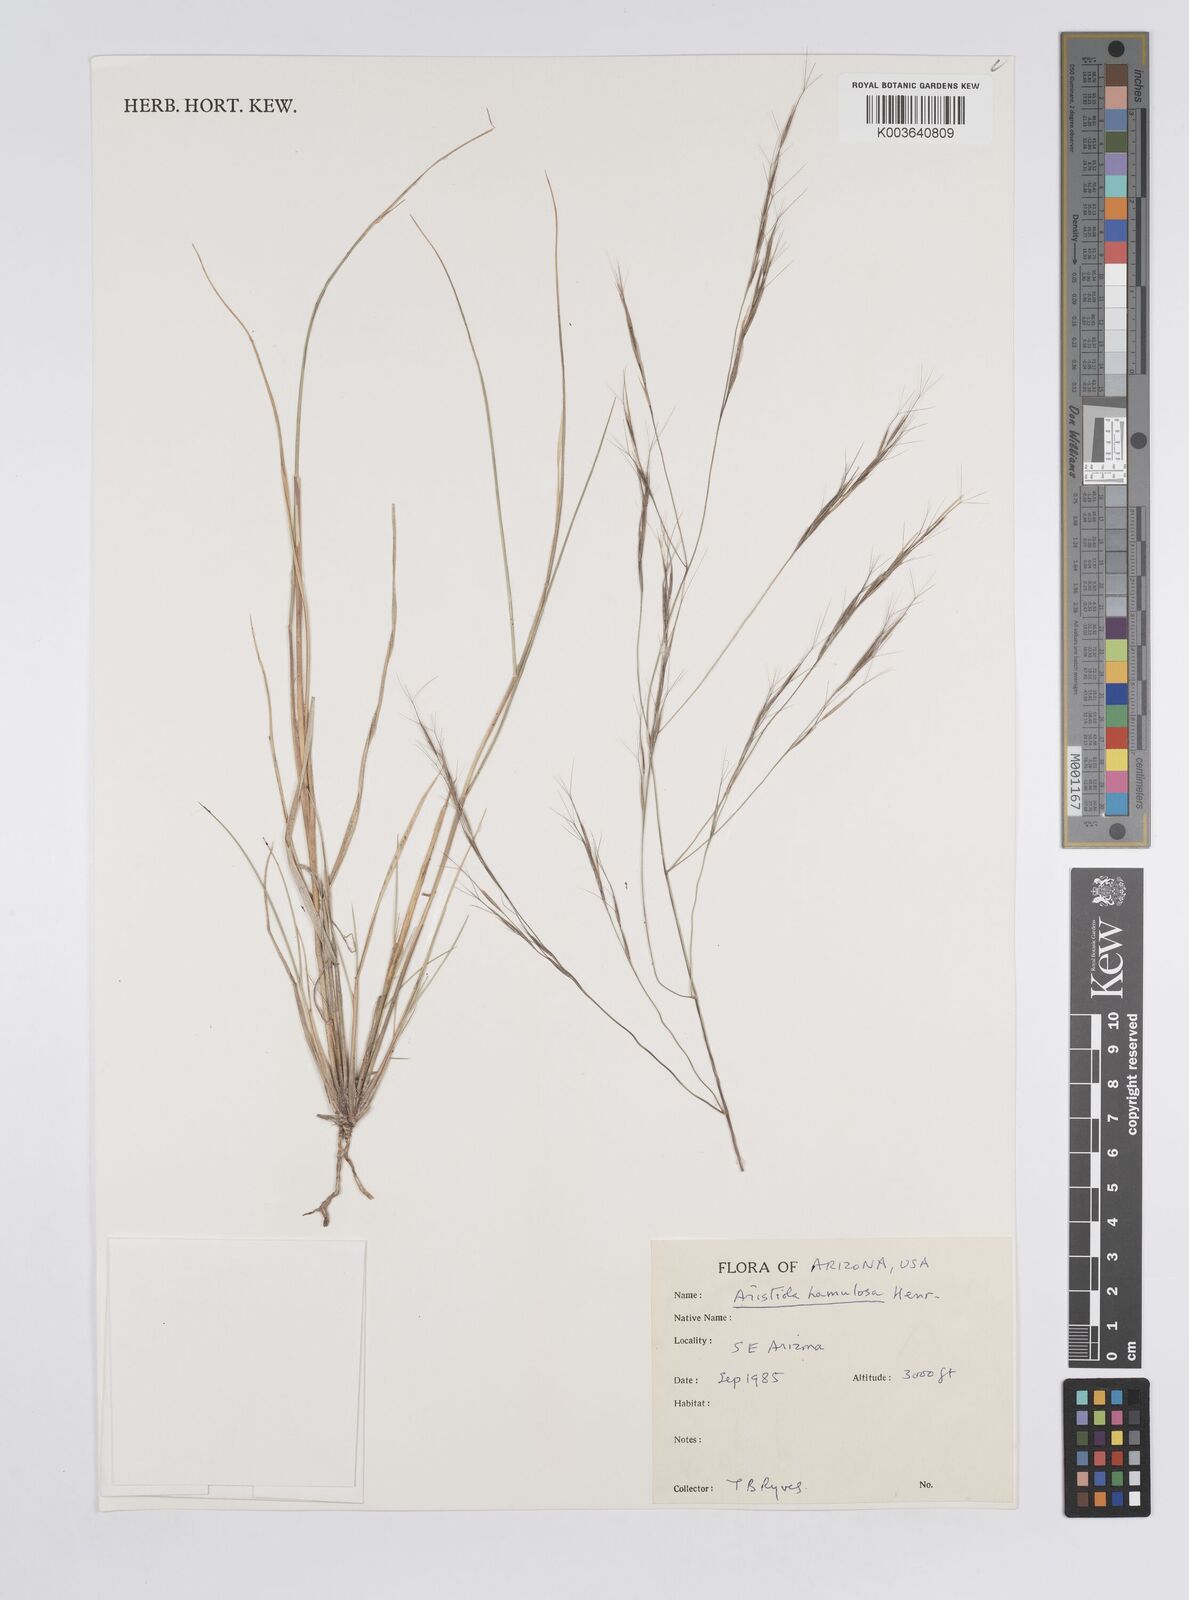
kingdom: Plantae
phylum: Tracheophyta
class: Liliopsida
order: Poales
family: Poaceae
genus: Aristida
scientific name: Aristida hamulosa
